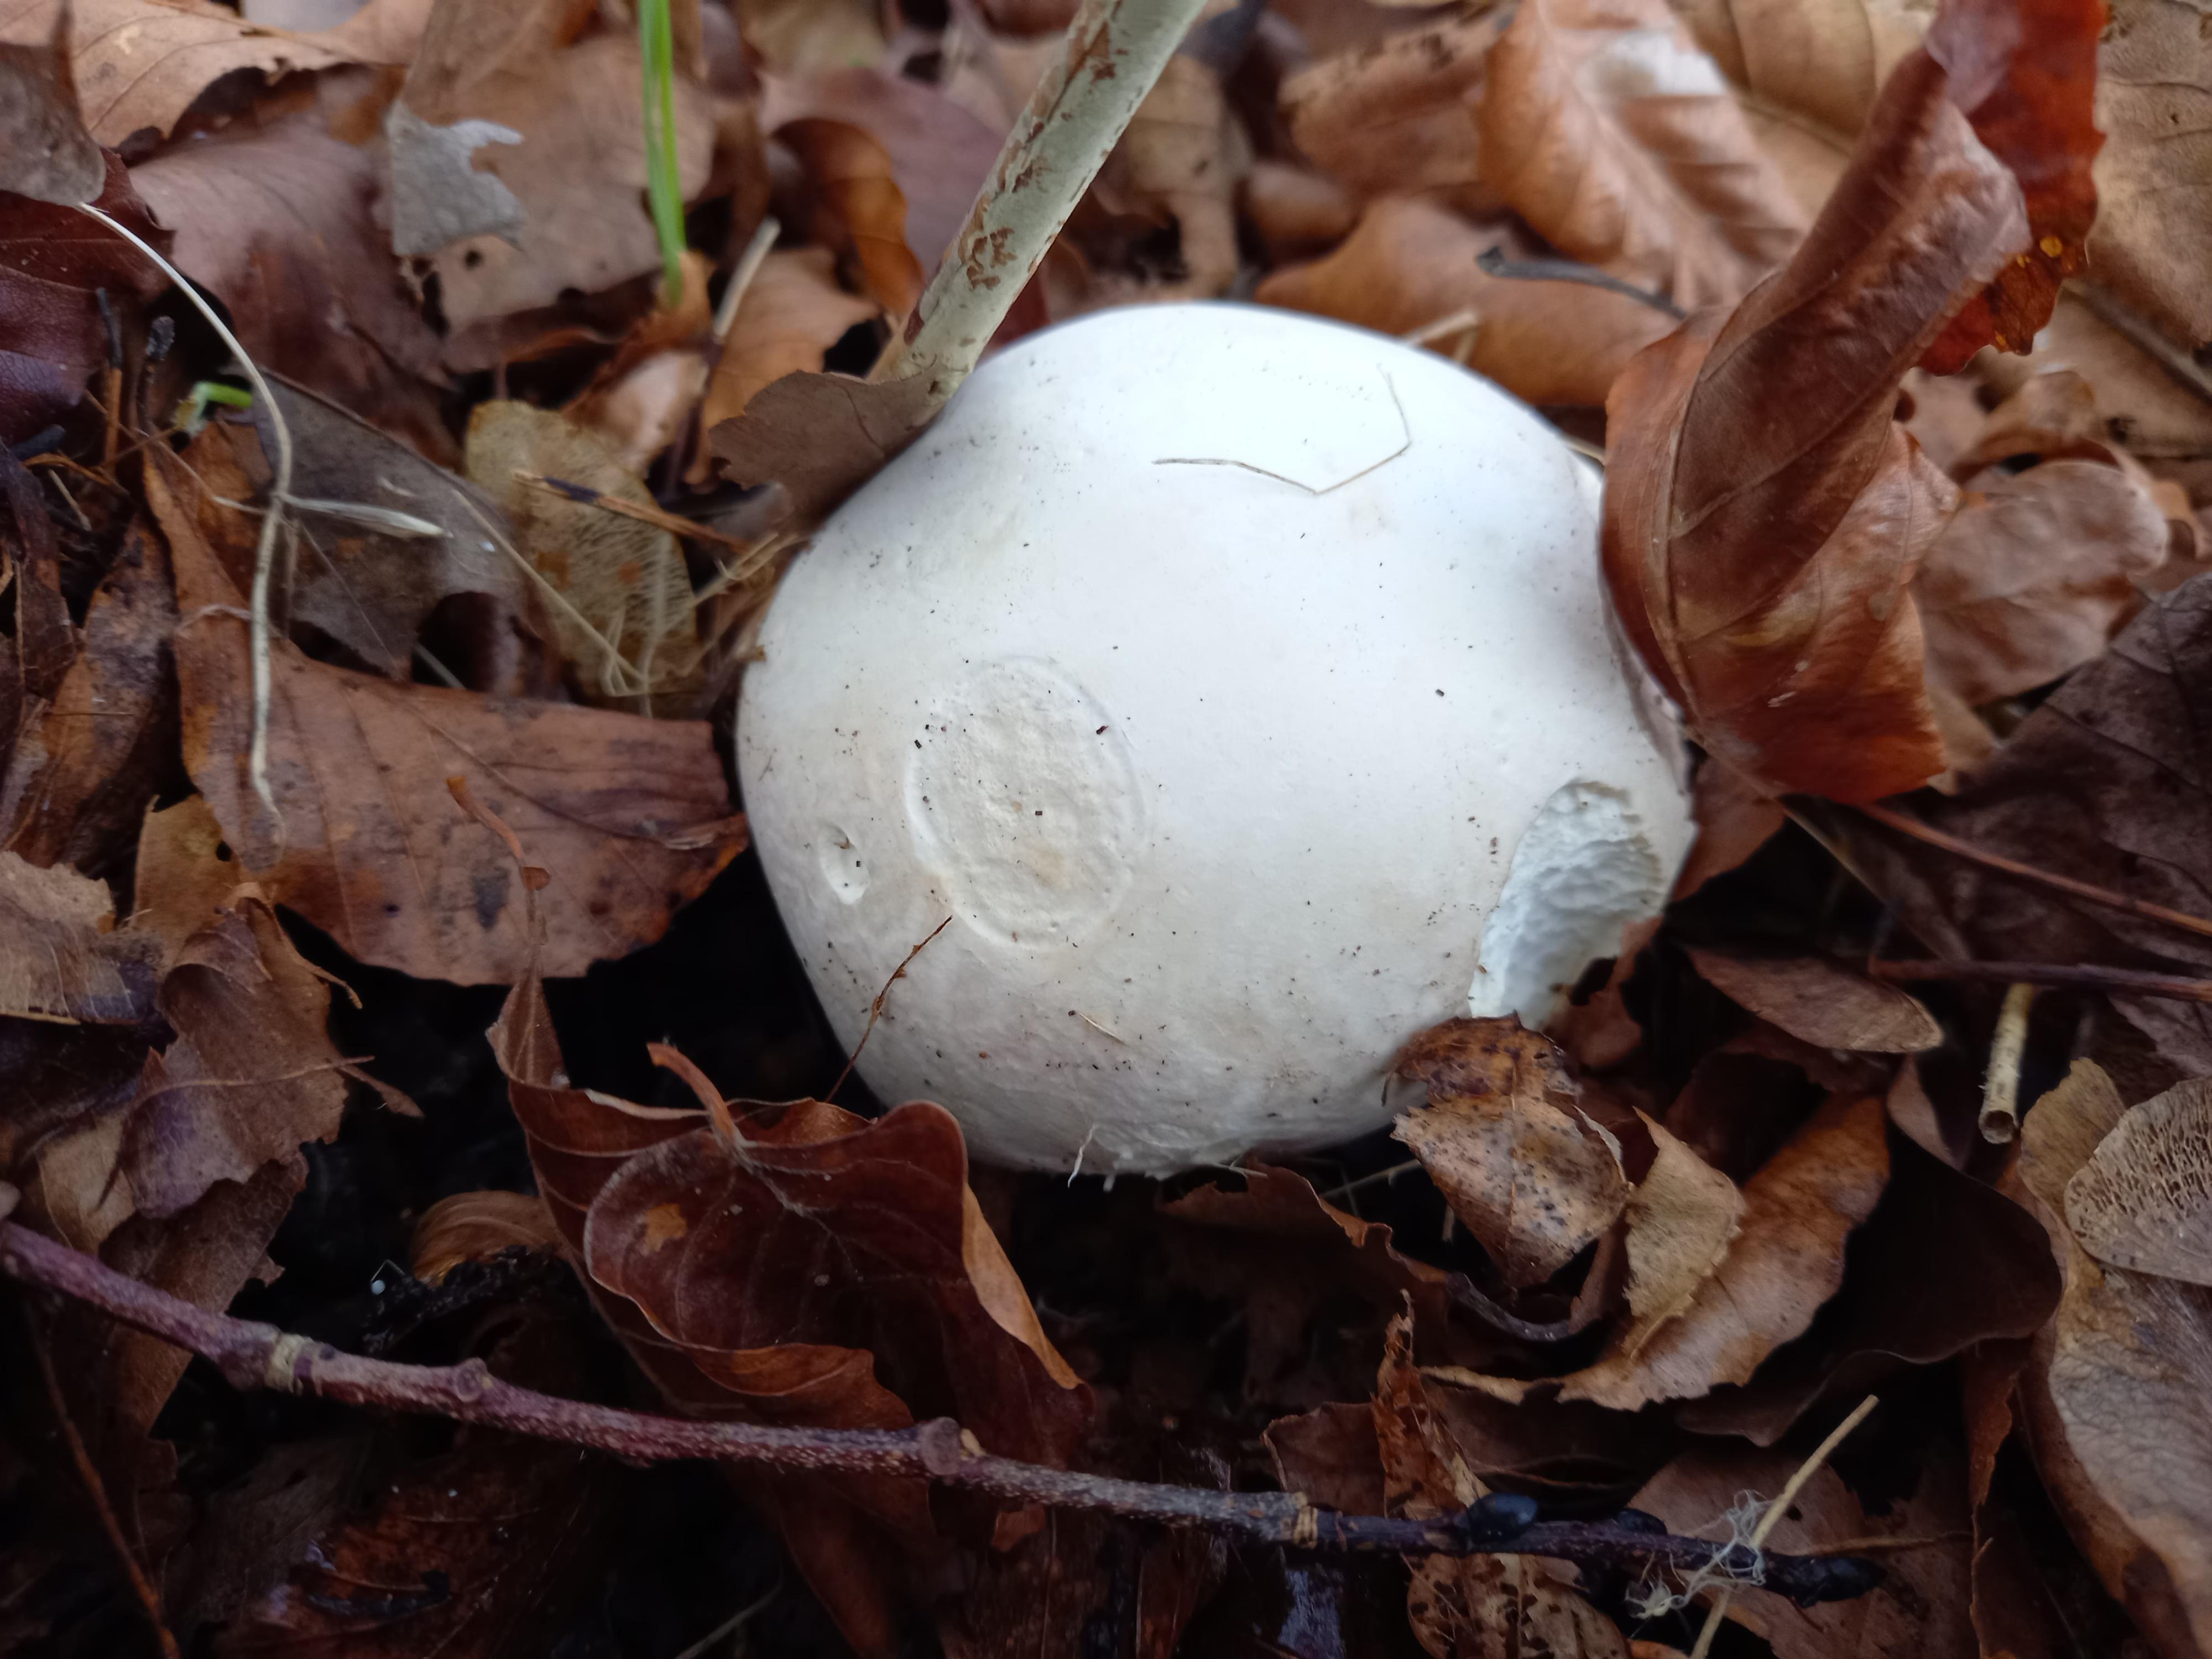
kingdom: Fungi
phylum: Basidiomycota
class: Agaricomycetes
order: Agaricales
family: Lycoperdaceae
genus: Calvatia
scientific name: Calvatia gigantea
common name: kæmpestøvbold
